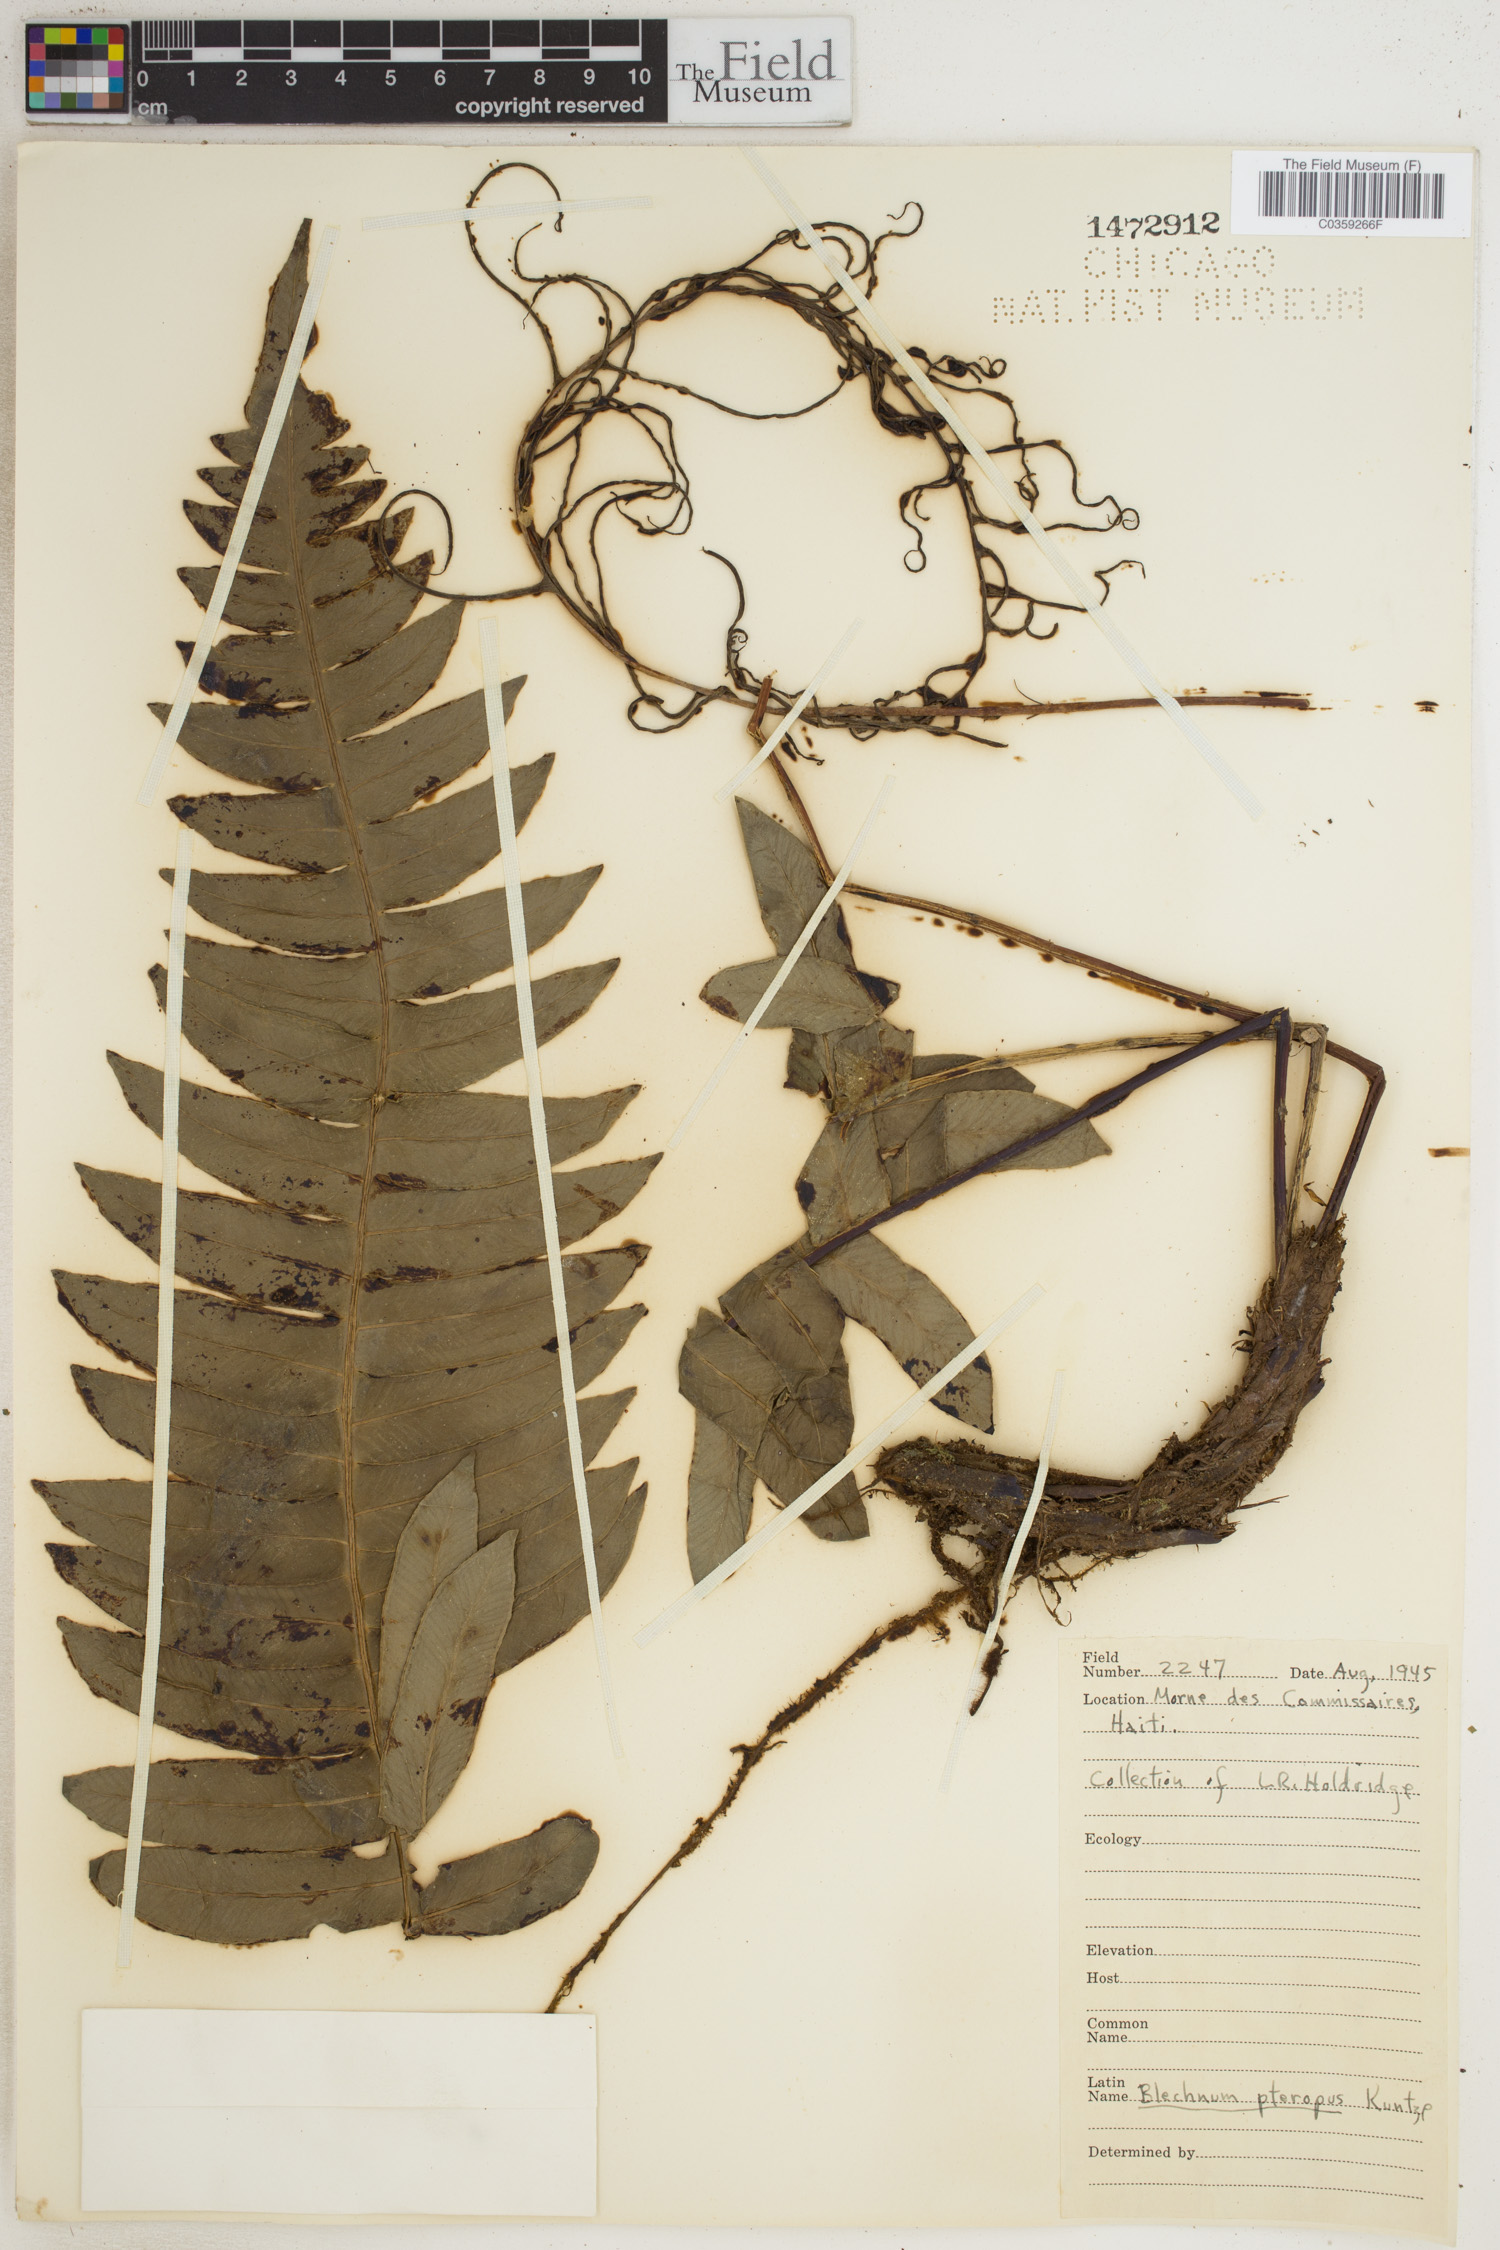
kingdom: Plantae
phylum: Tracheophyta
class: Polypodiopsida
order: Polypodiales
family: Blechnaceae
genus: Lomaridium
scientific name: Lomaridium pteropus
